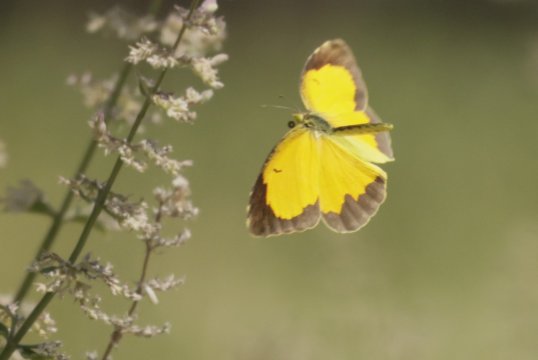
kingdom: Animalia
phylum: Arthropoda
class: Insecta
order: Lepidoptera
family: Pieridae
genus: Abaeis
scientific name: Abaeis nicippe
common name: Sleepy Orange
